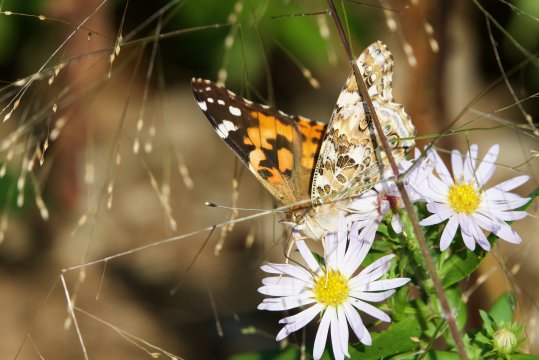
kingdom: Animalia
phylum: Arthropoda
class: Insecta
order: Lepidoptera
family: Nymphalidae
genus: Vanessa
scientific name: Vanessa cardui
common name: Painted Lady
